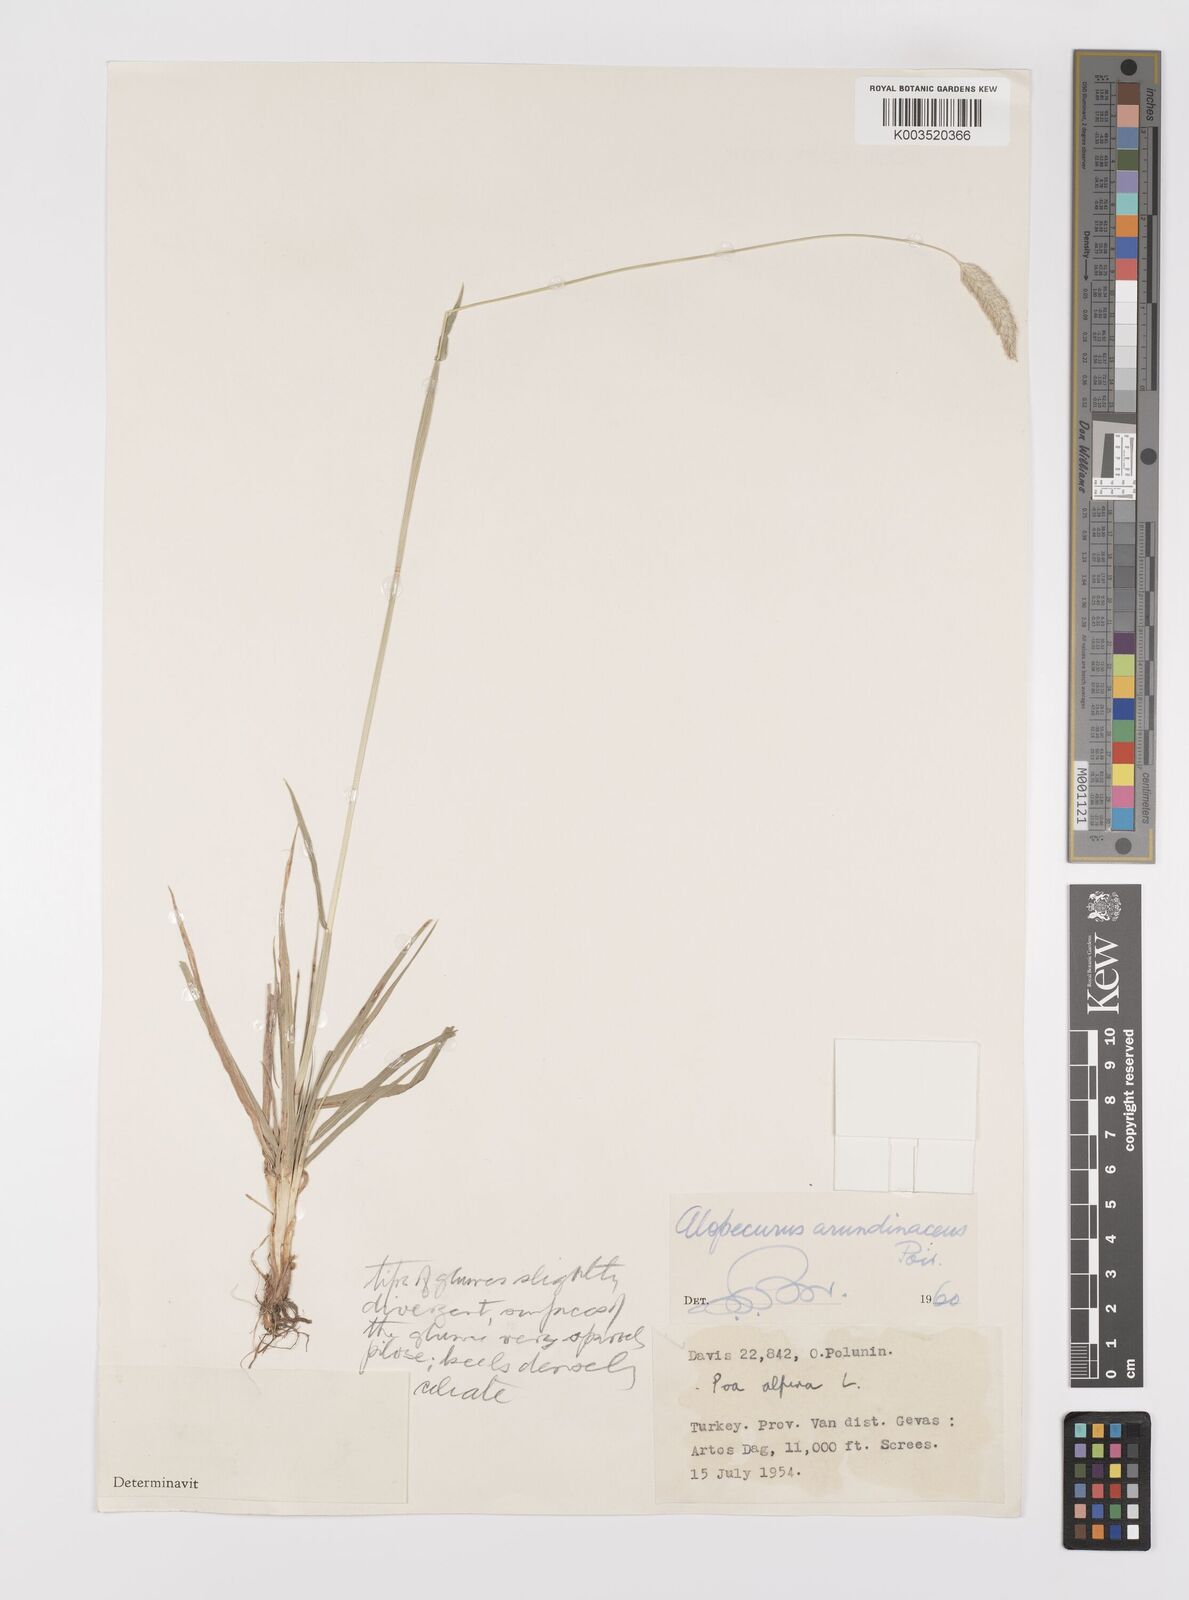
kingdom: Plantae
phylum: Tracheophyta
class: Liliopsida
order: Poales
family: Poaceae
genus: Alopecurus
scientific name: Alopecurus arundinaceus
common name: Creeping meadow foxtail
